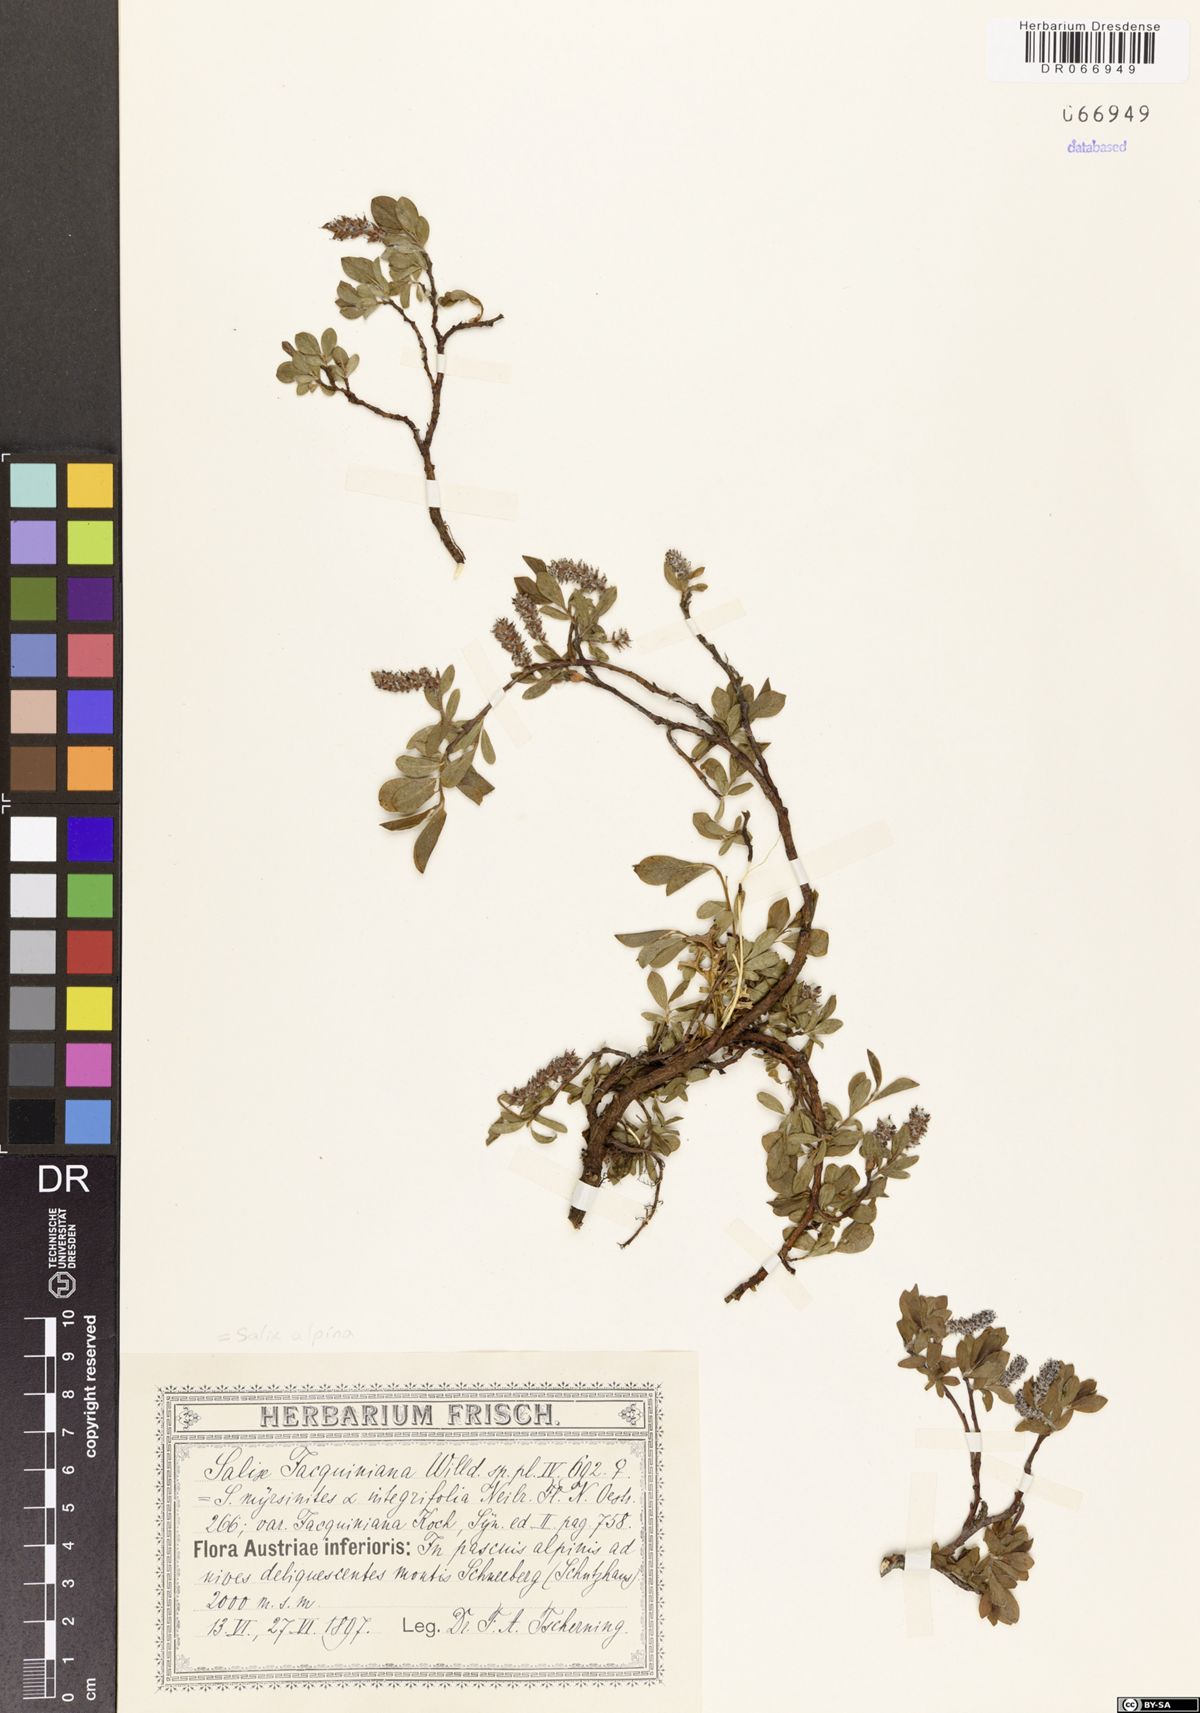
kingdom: Plantae
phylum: Tracheophyta
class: Magnoliopsida
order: Malpighiales
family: Salicaceae
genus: Salix
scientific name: Salix alpina
